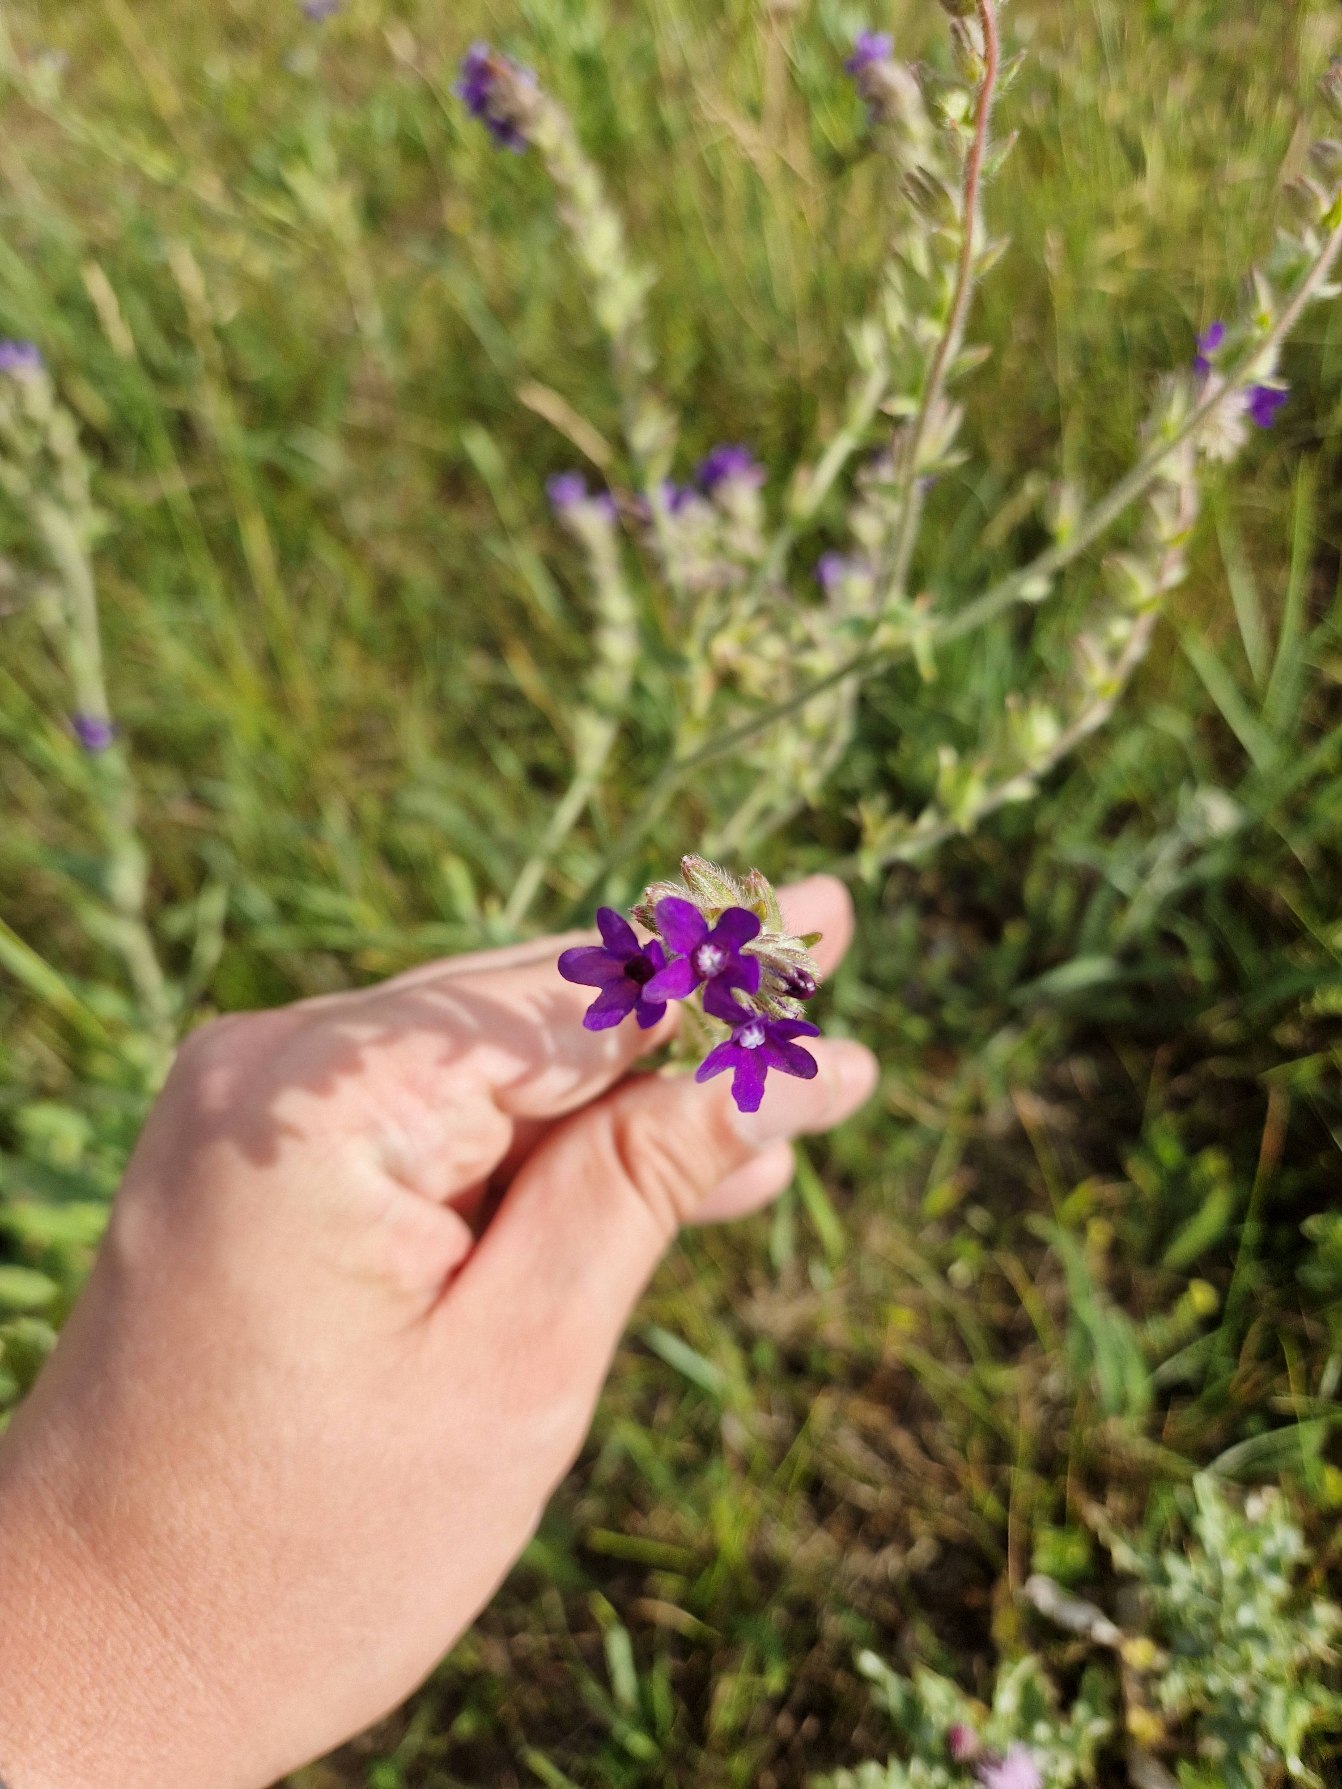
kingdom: Plantae
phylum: Tracheophyta
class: Magnoliopsida
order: Boraginales
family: Boraginaceae
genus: Anchusa
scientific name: Anchusa officinalis
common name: Læge-oksetunge
